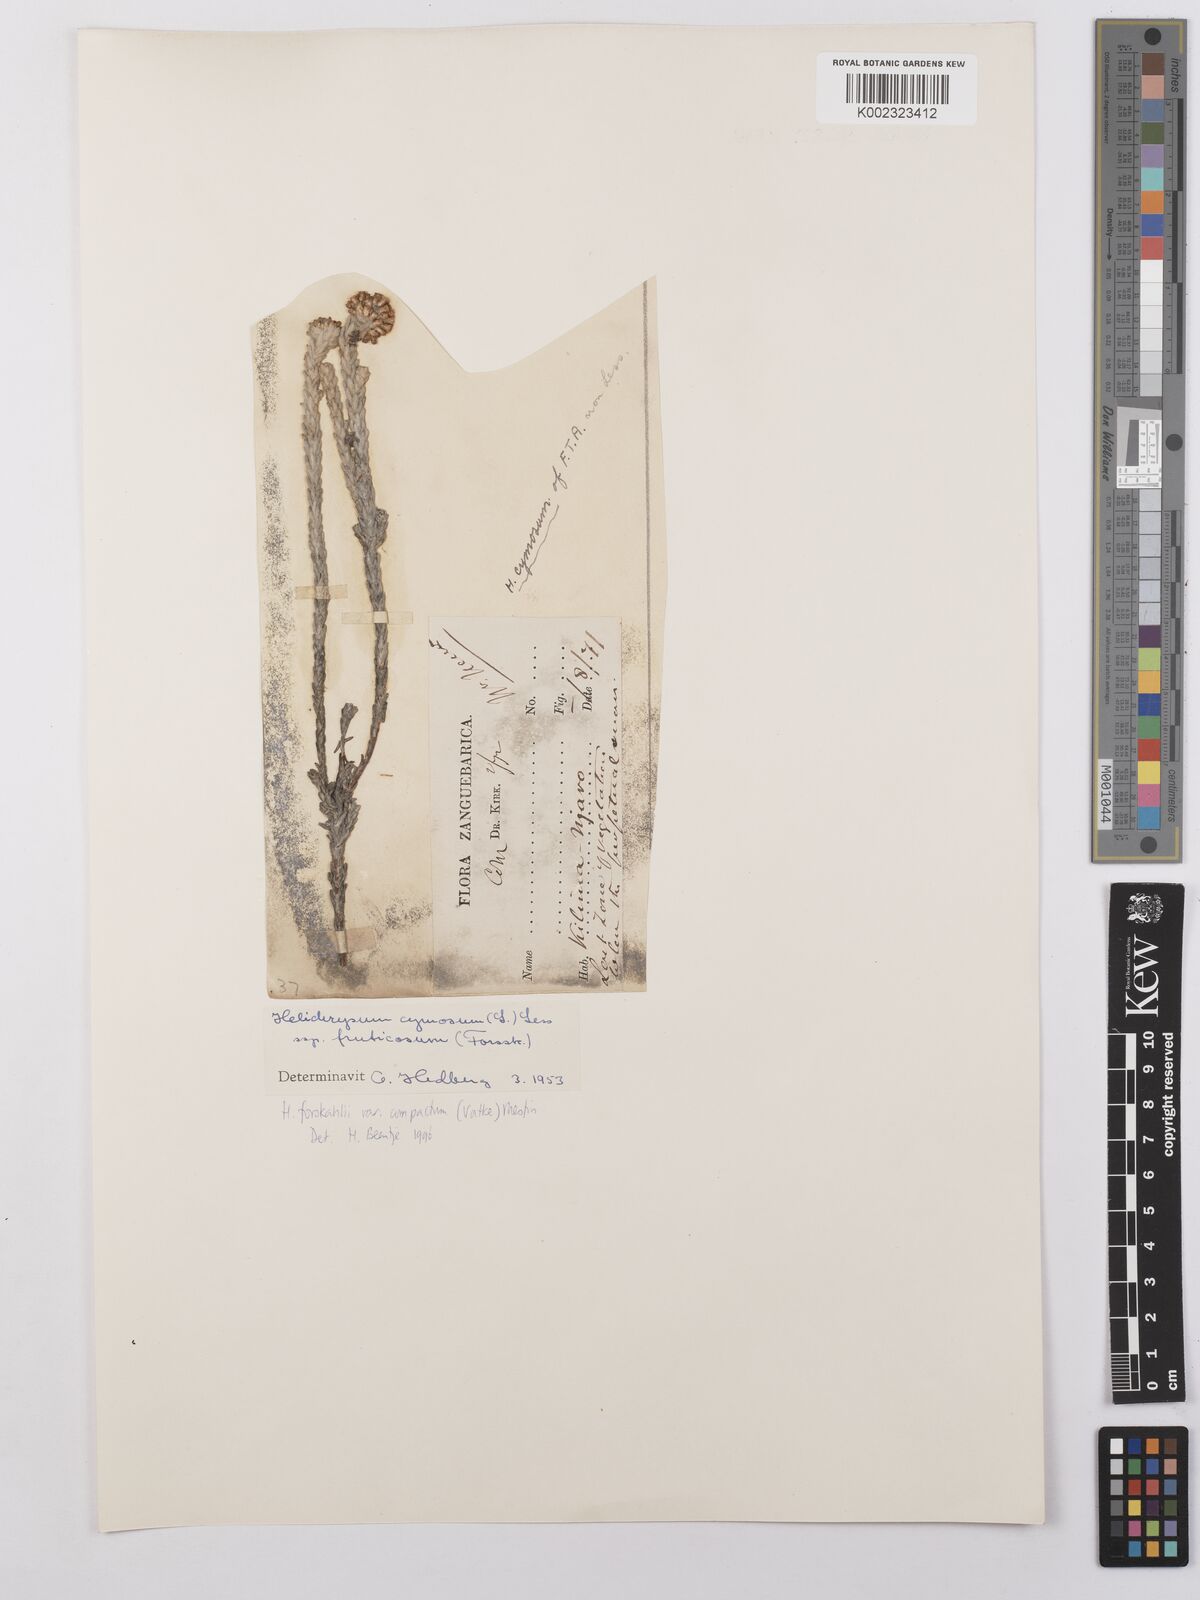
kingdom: Plantae
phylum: Tracheophyta
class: Magnoliopsida
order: Asterales
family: Asteraceae
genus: Helichrysum
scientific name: Helichrysum forskahlii
